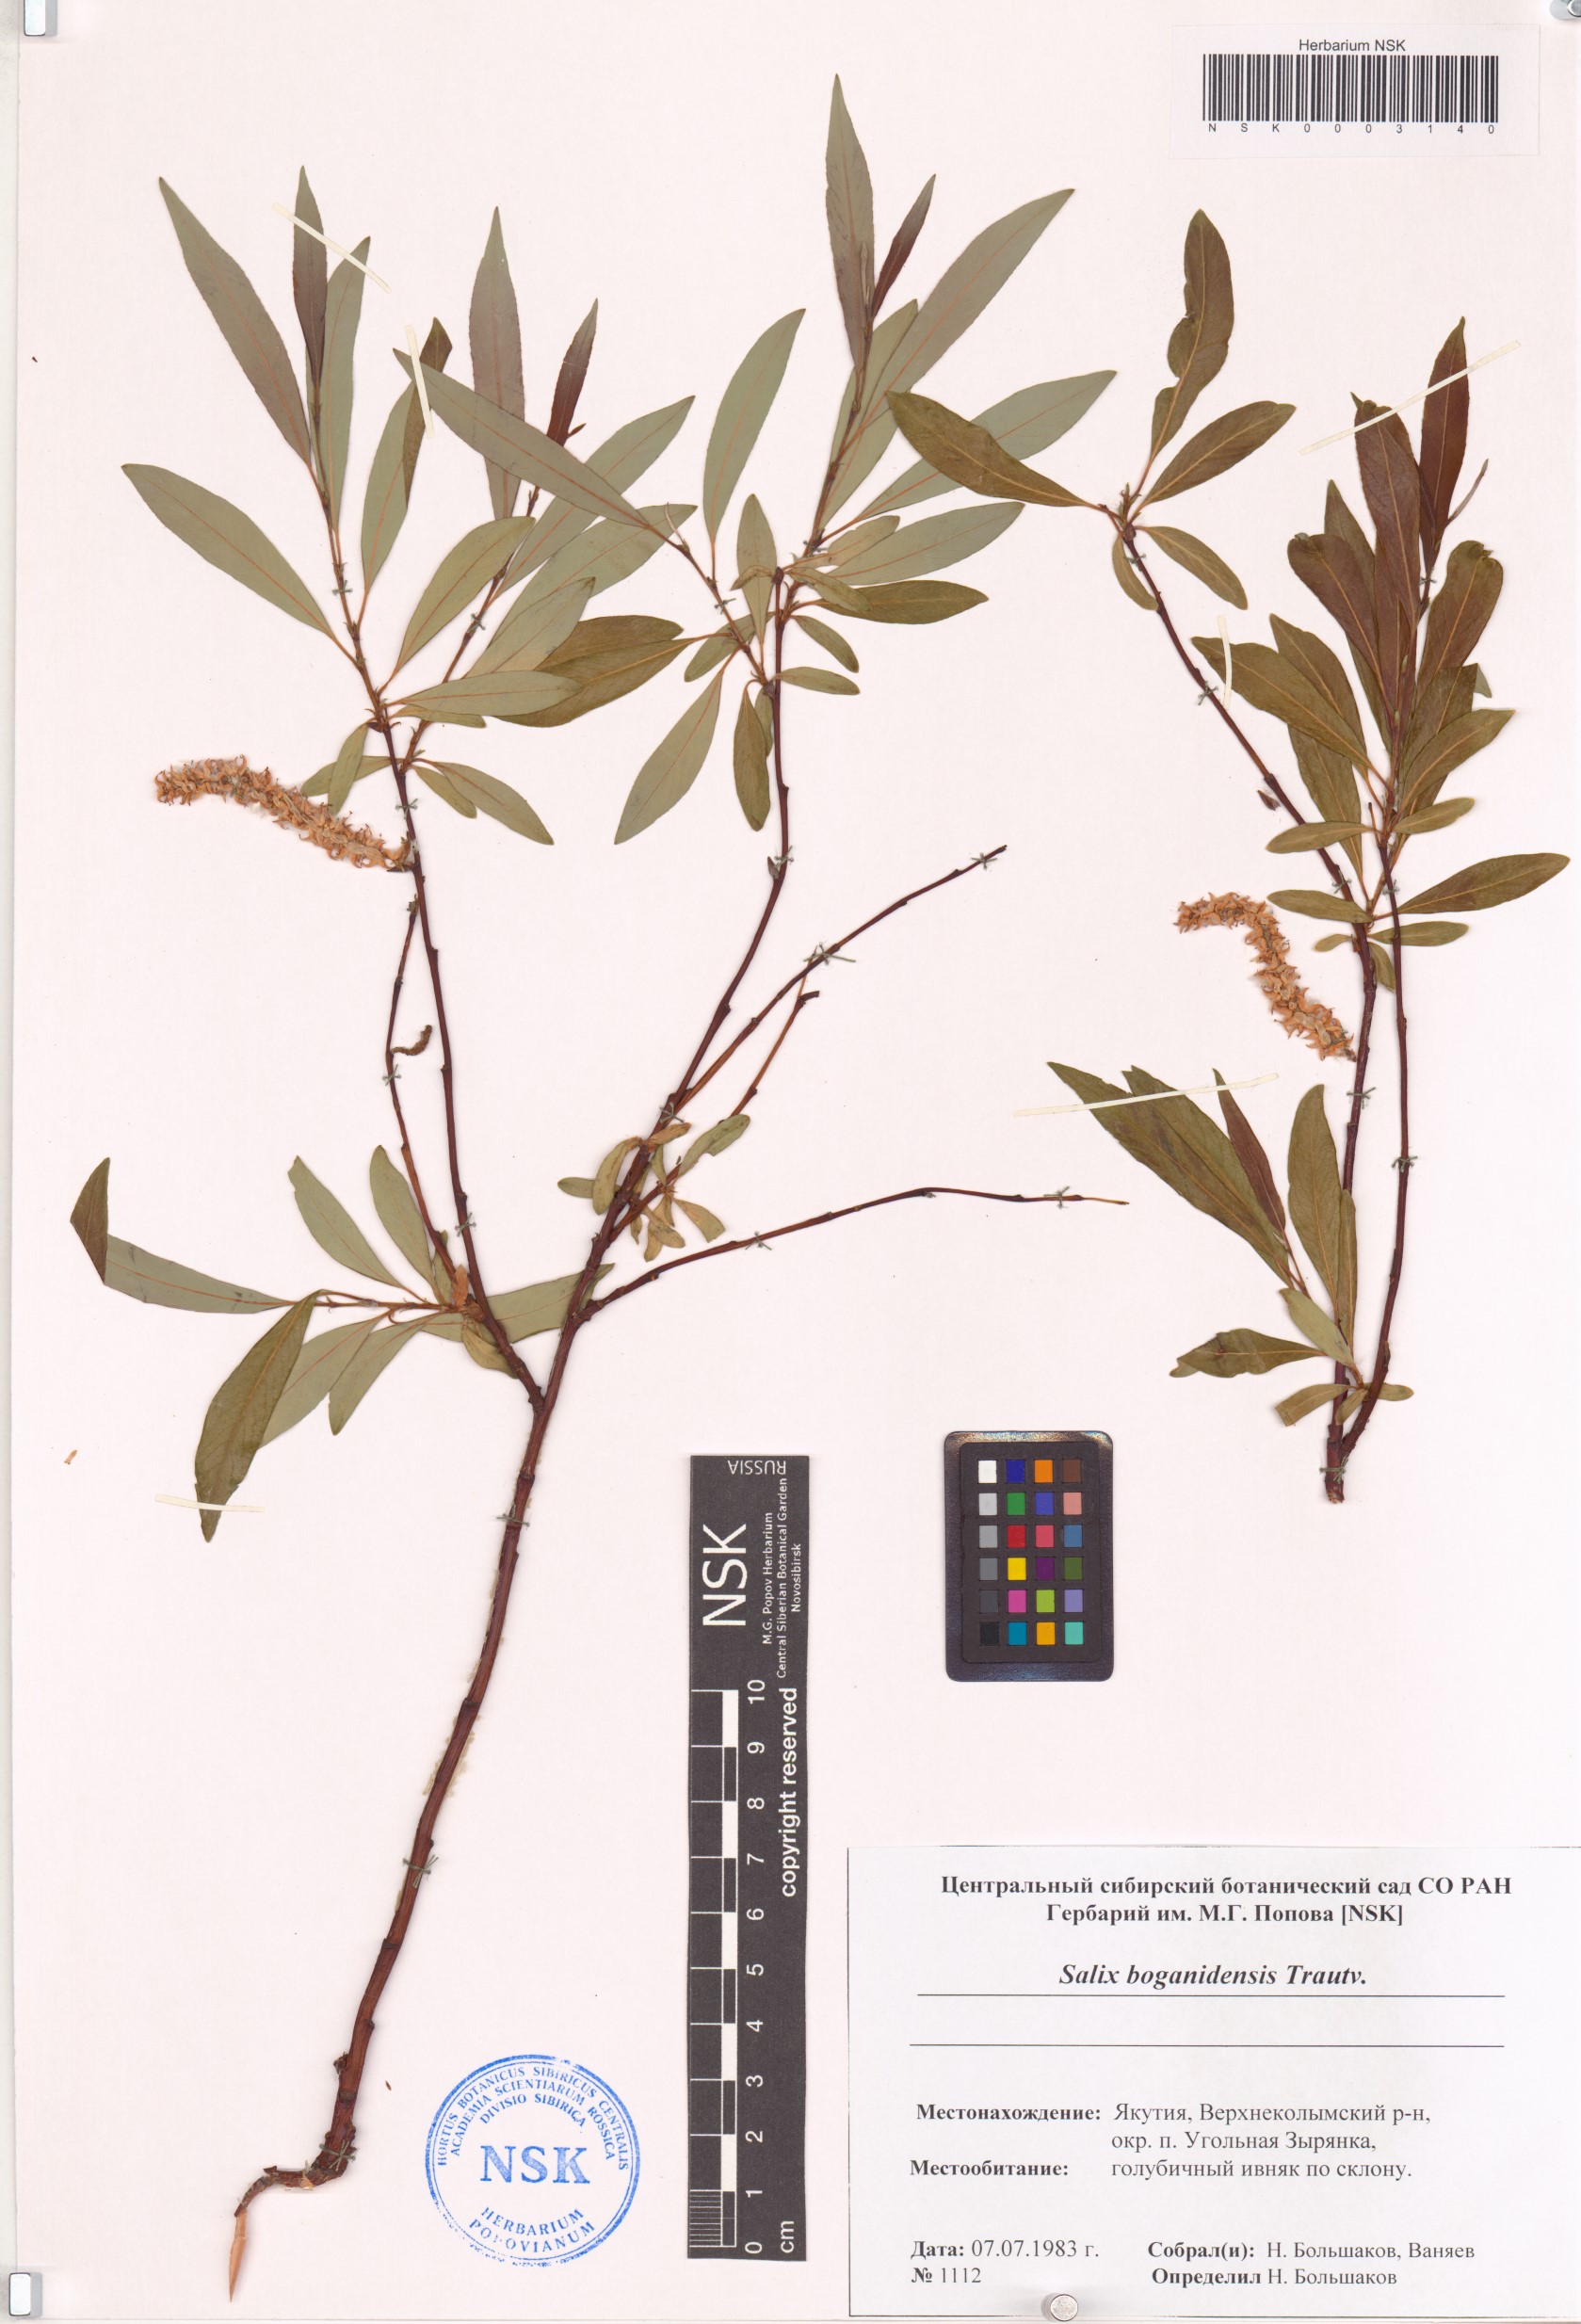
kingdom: Plantae
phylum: Tracheophyta
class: Magnoliopsida
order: Malpighiales
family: Salicaceae
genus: Salix
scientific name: Salix boganidensis
